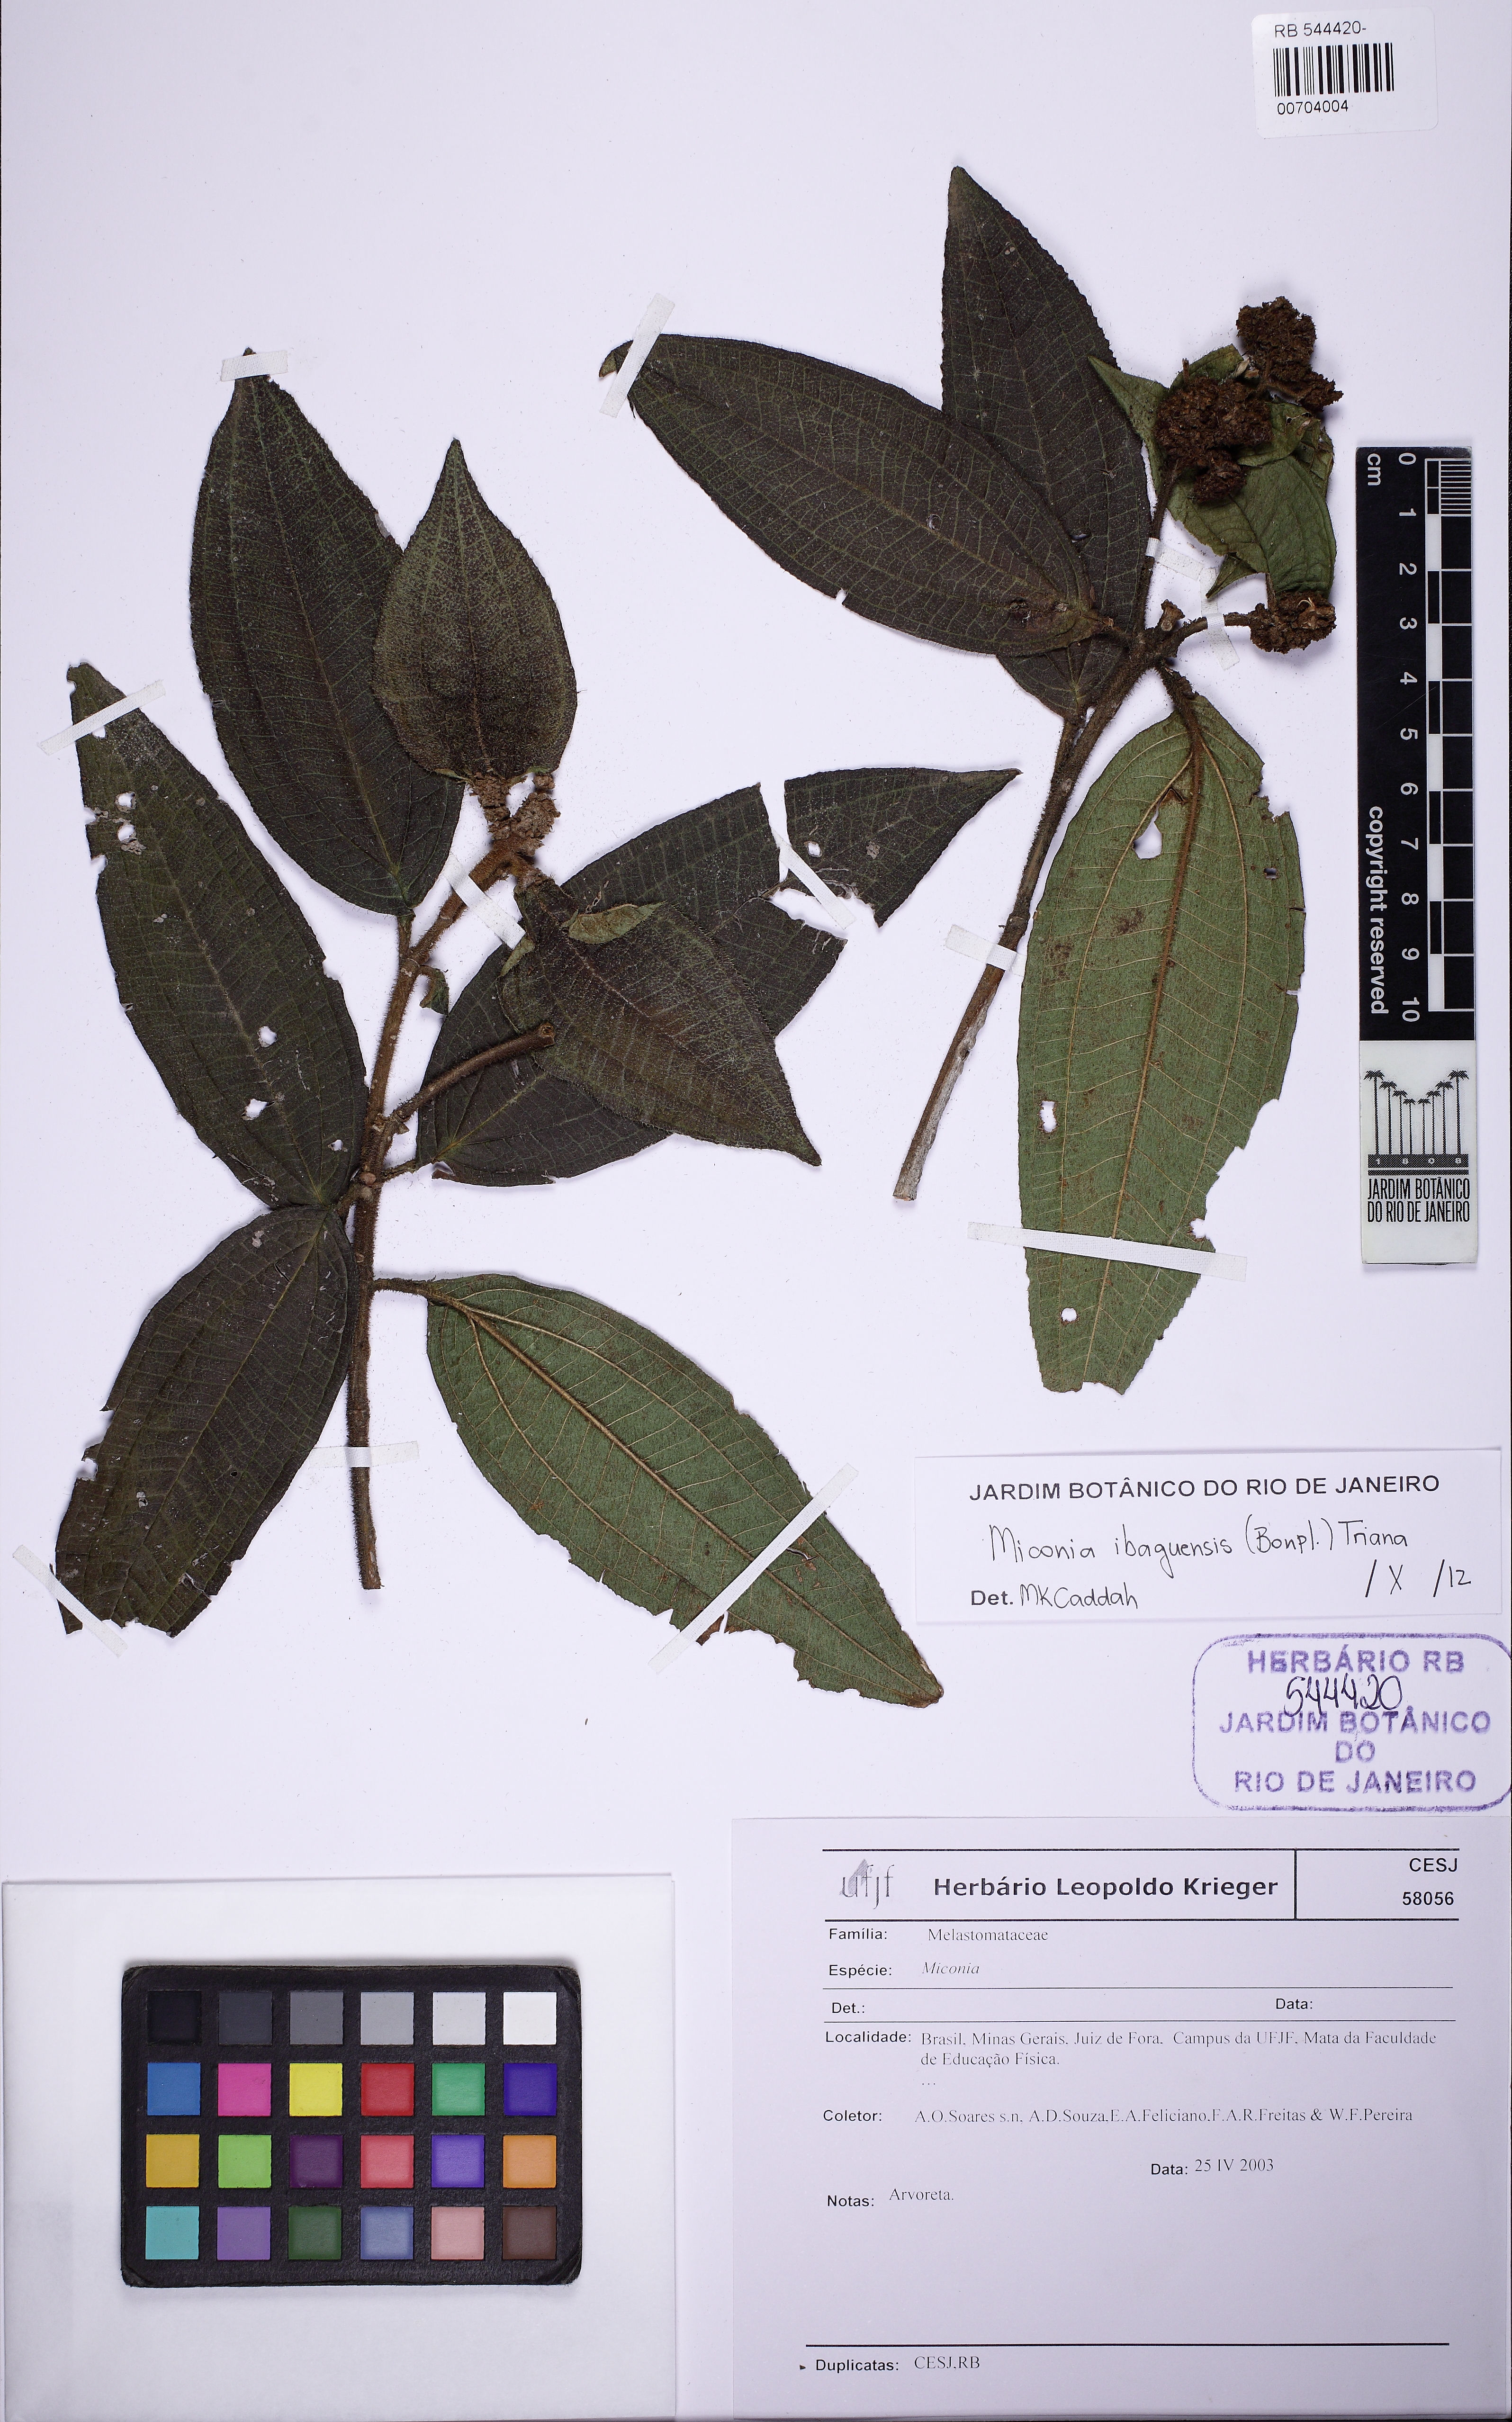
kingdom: Plantae
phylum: Tracheophyta
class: Magnoliopsida
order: Myrtales
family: Melastomataceae
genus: Miconia
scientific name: Miconia ibaguensis
